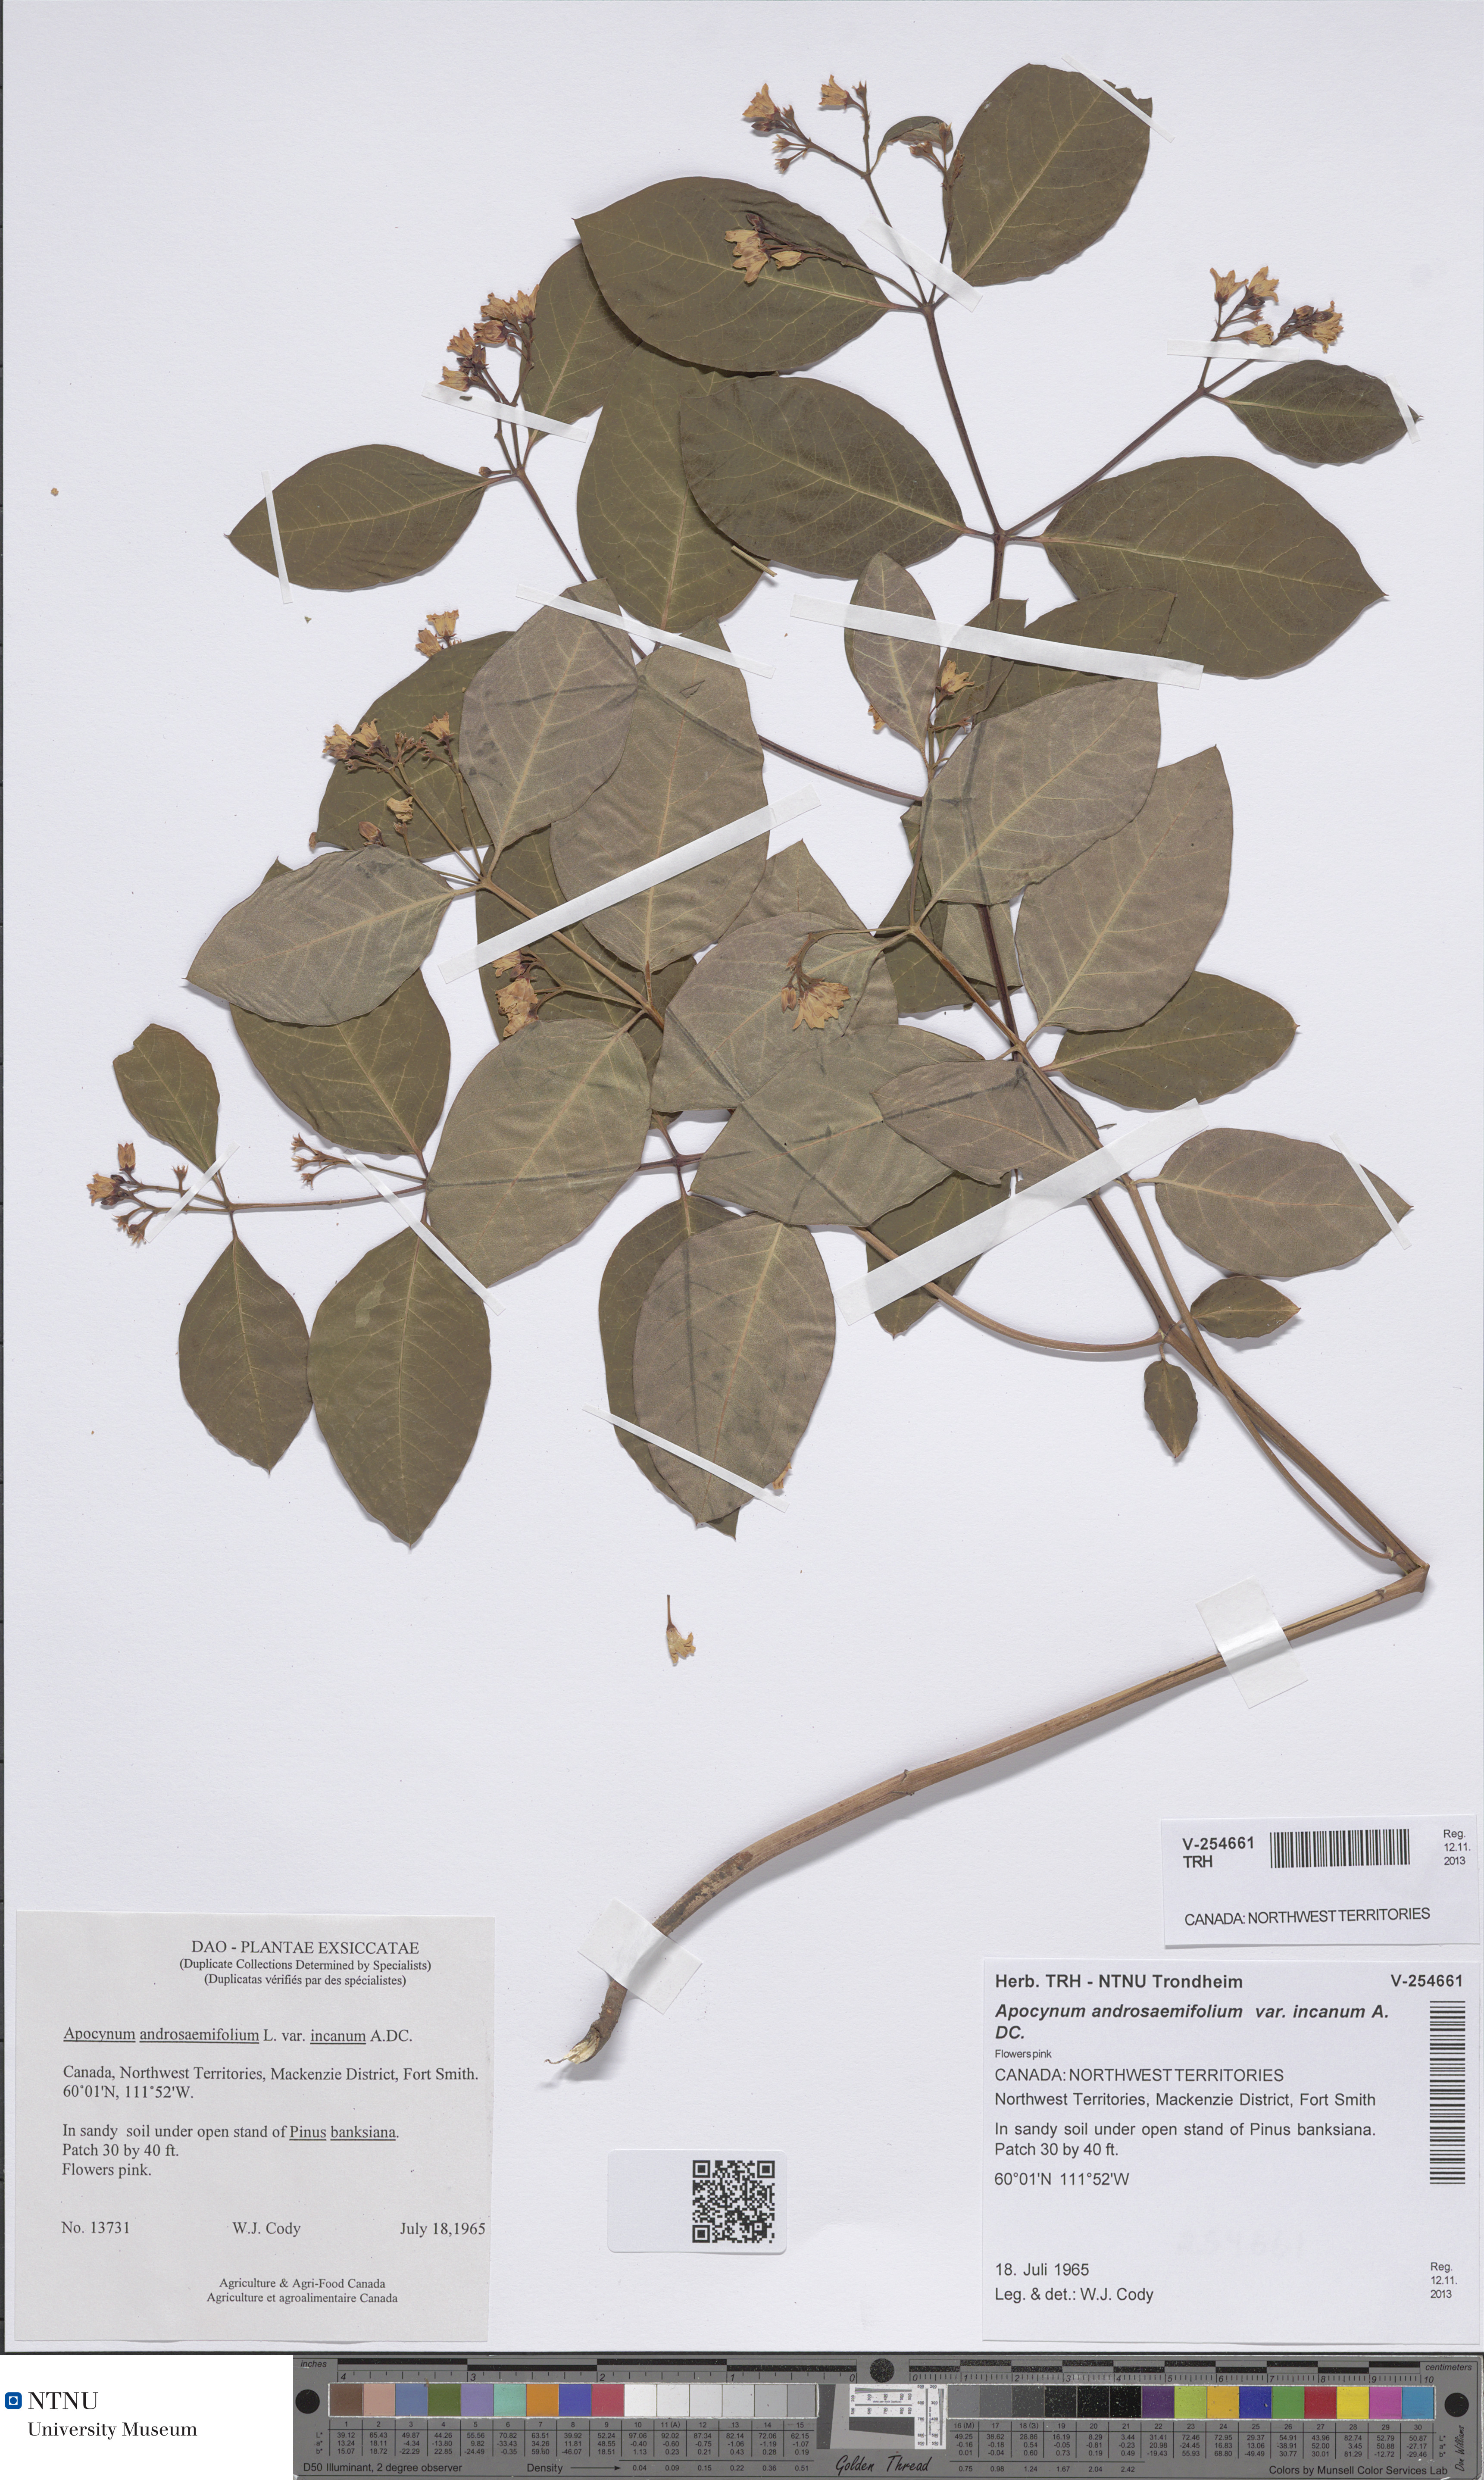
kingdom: Plantae
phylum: Tracheophyta
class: Magnoliopsida
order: Gentianales
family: Apocynaceae
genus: Apocynum
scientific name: Apocynum androsaemifolium
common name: Spreading dogbane
